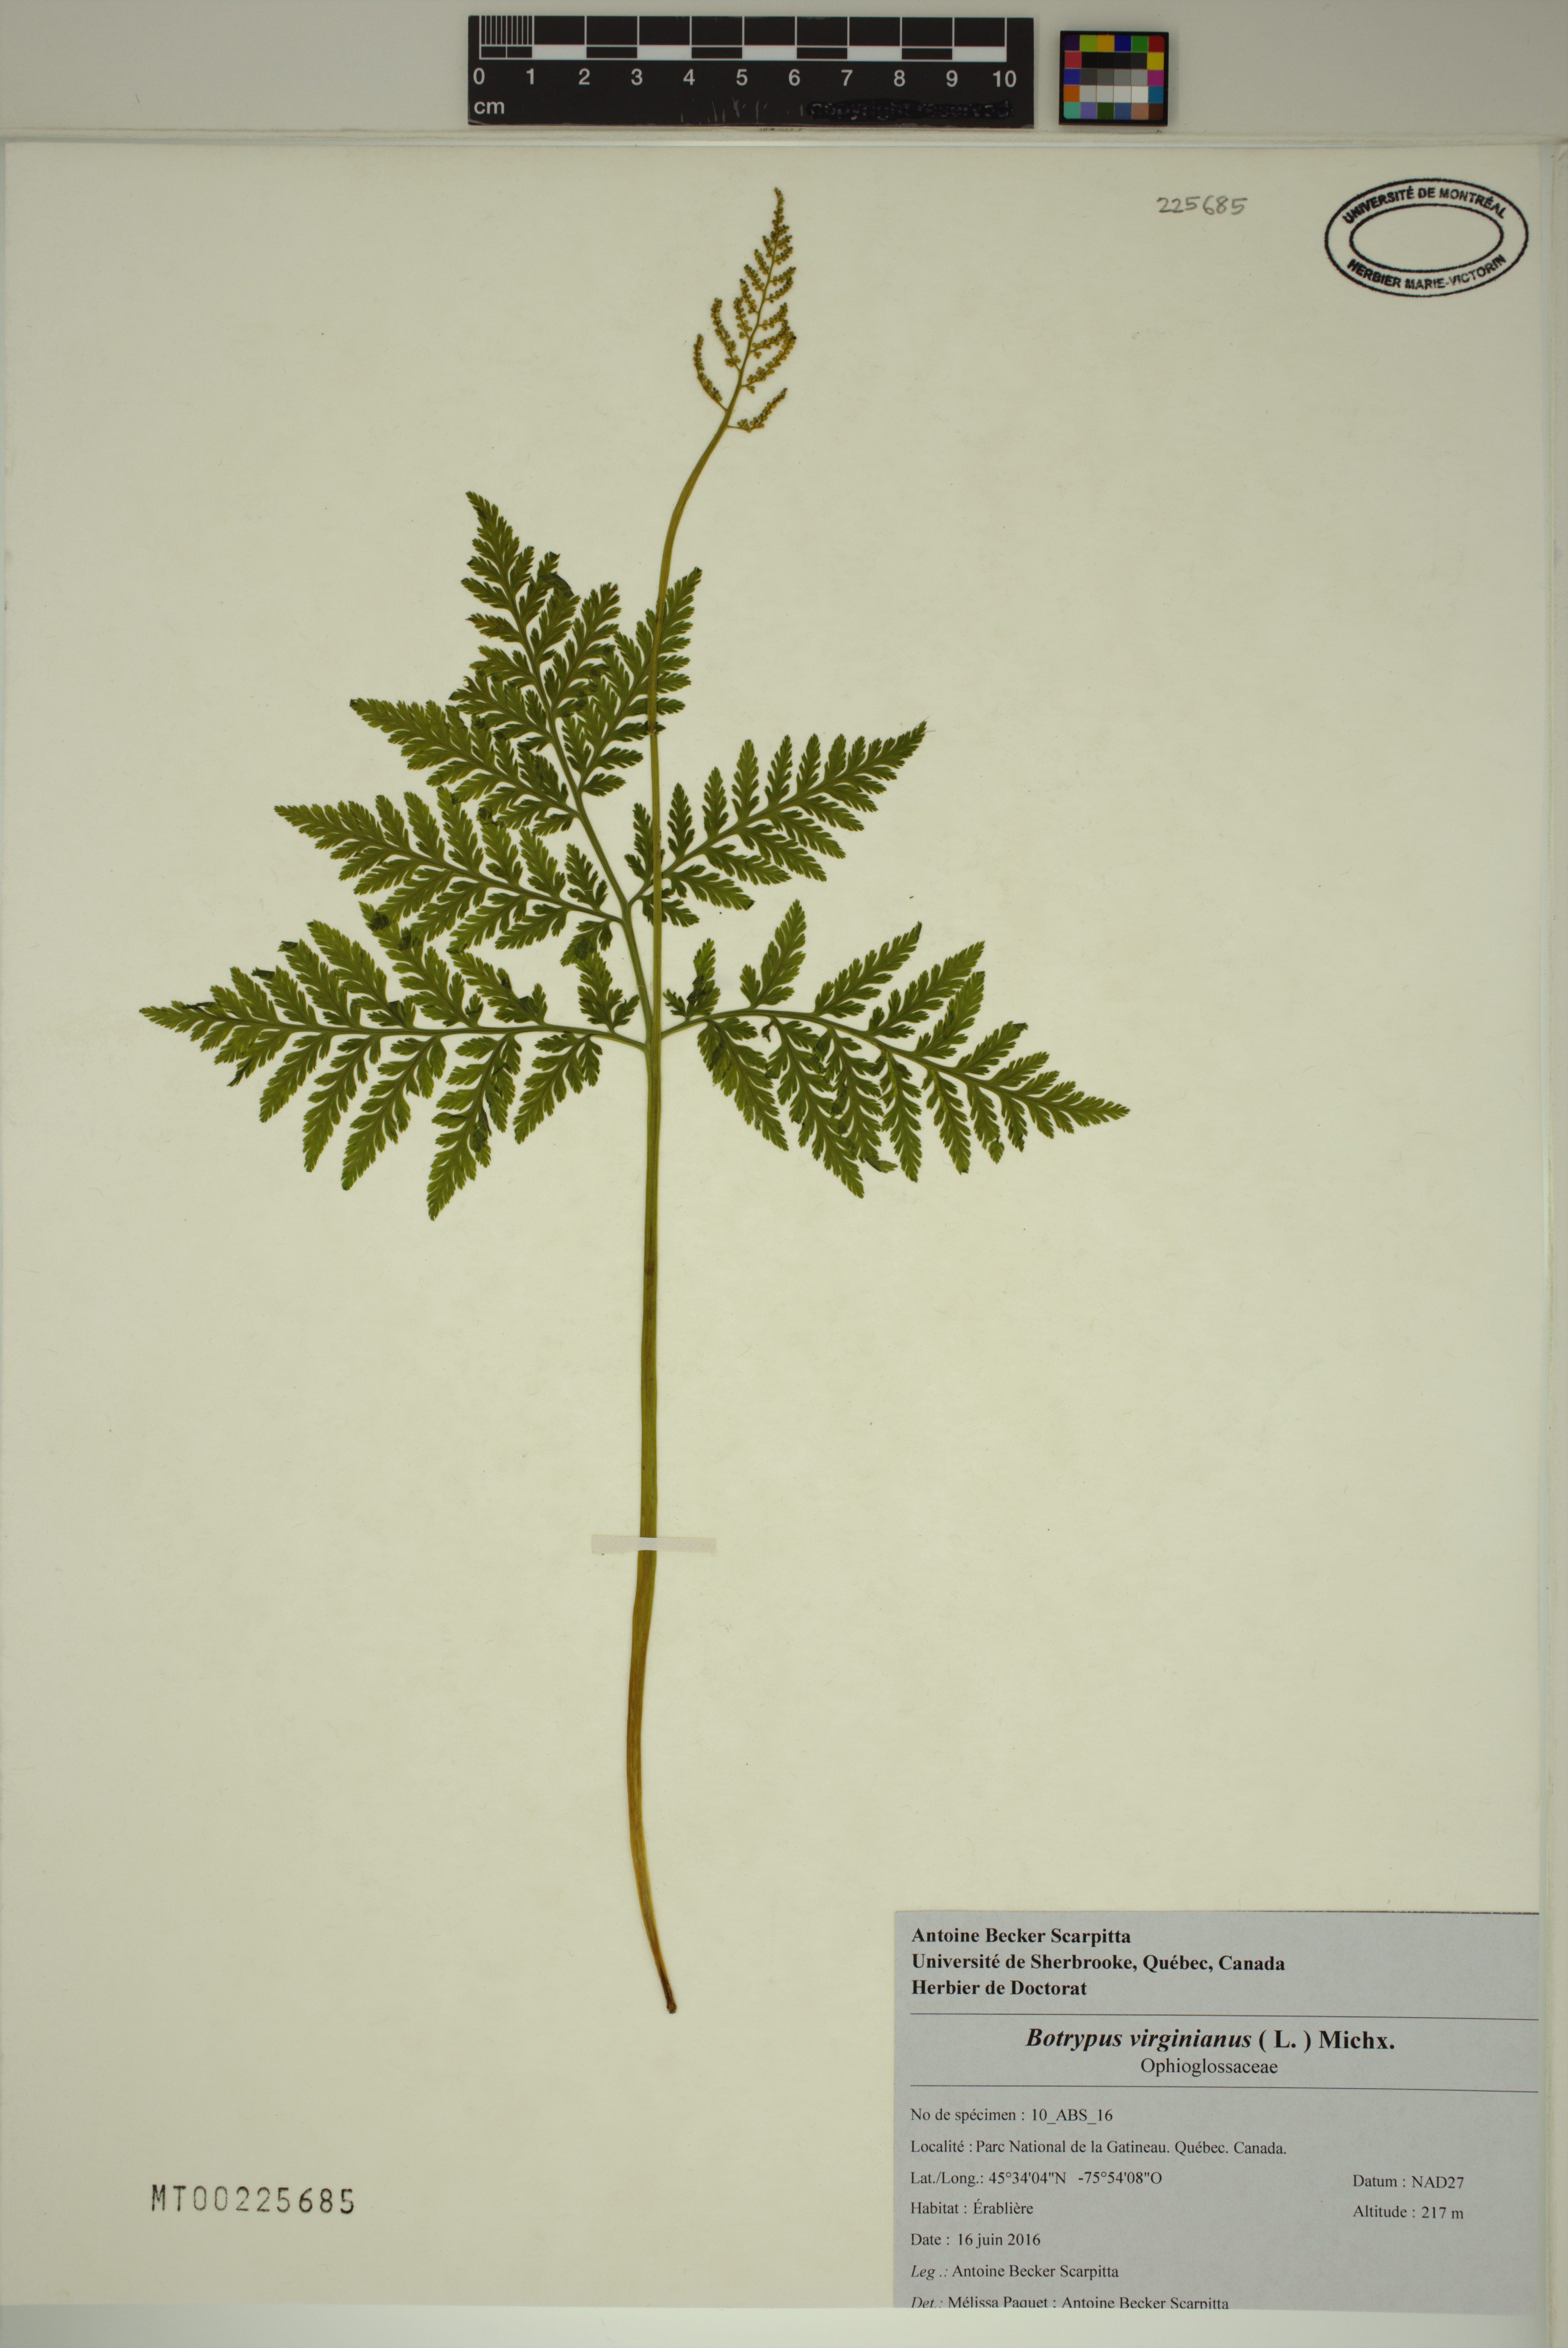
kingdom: Plantae
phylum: Tracheophyta
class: Polypodiopsida
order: Ophioglossales
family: Ophioglossaceae
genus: Botrypus
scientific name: Botrypus virginianus
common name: Common grapefern
